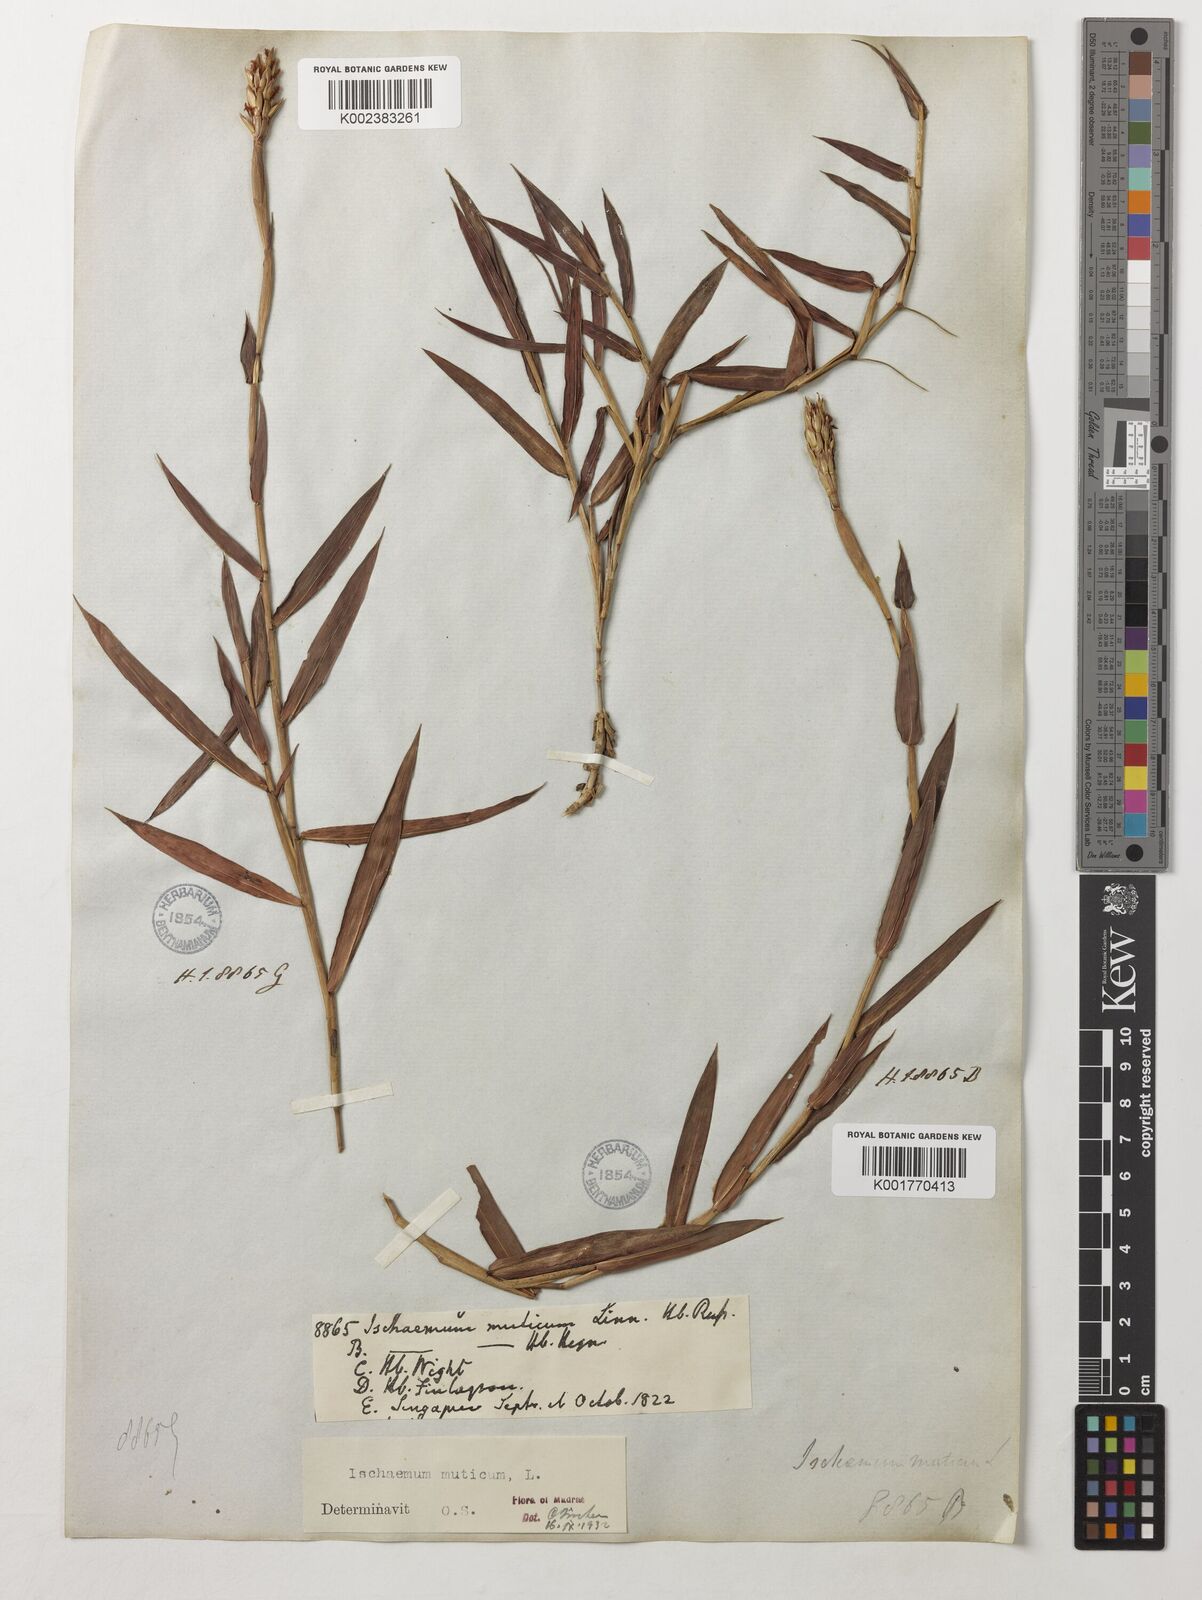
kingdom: Plantae
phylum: Tracheophyta
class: Liliopsida
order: Poales
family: Poaceae
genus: Ischaemum
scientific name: Ischaemum muticum
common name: Drought grass
